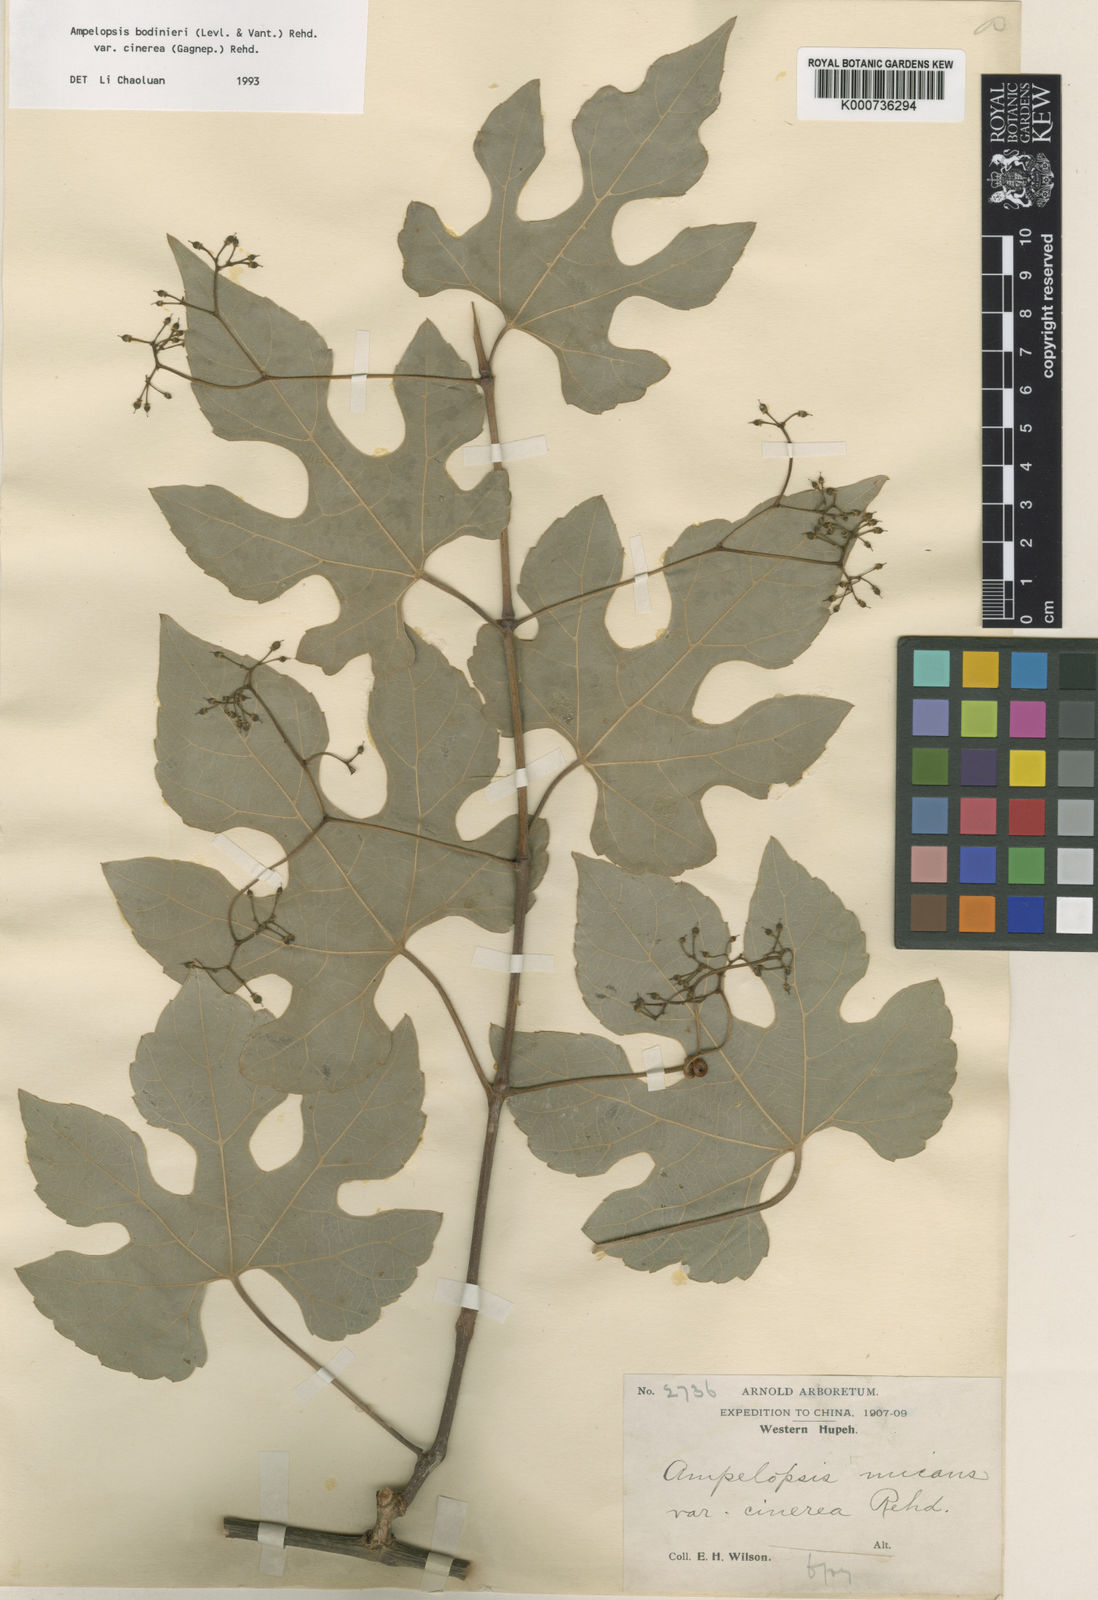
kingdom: Plantae
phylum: Tracheophyta
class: Magnoliopsida
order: Vitales
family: Vitaceae
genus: Ampelopsis
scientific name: Ampelopsis
